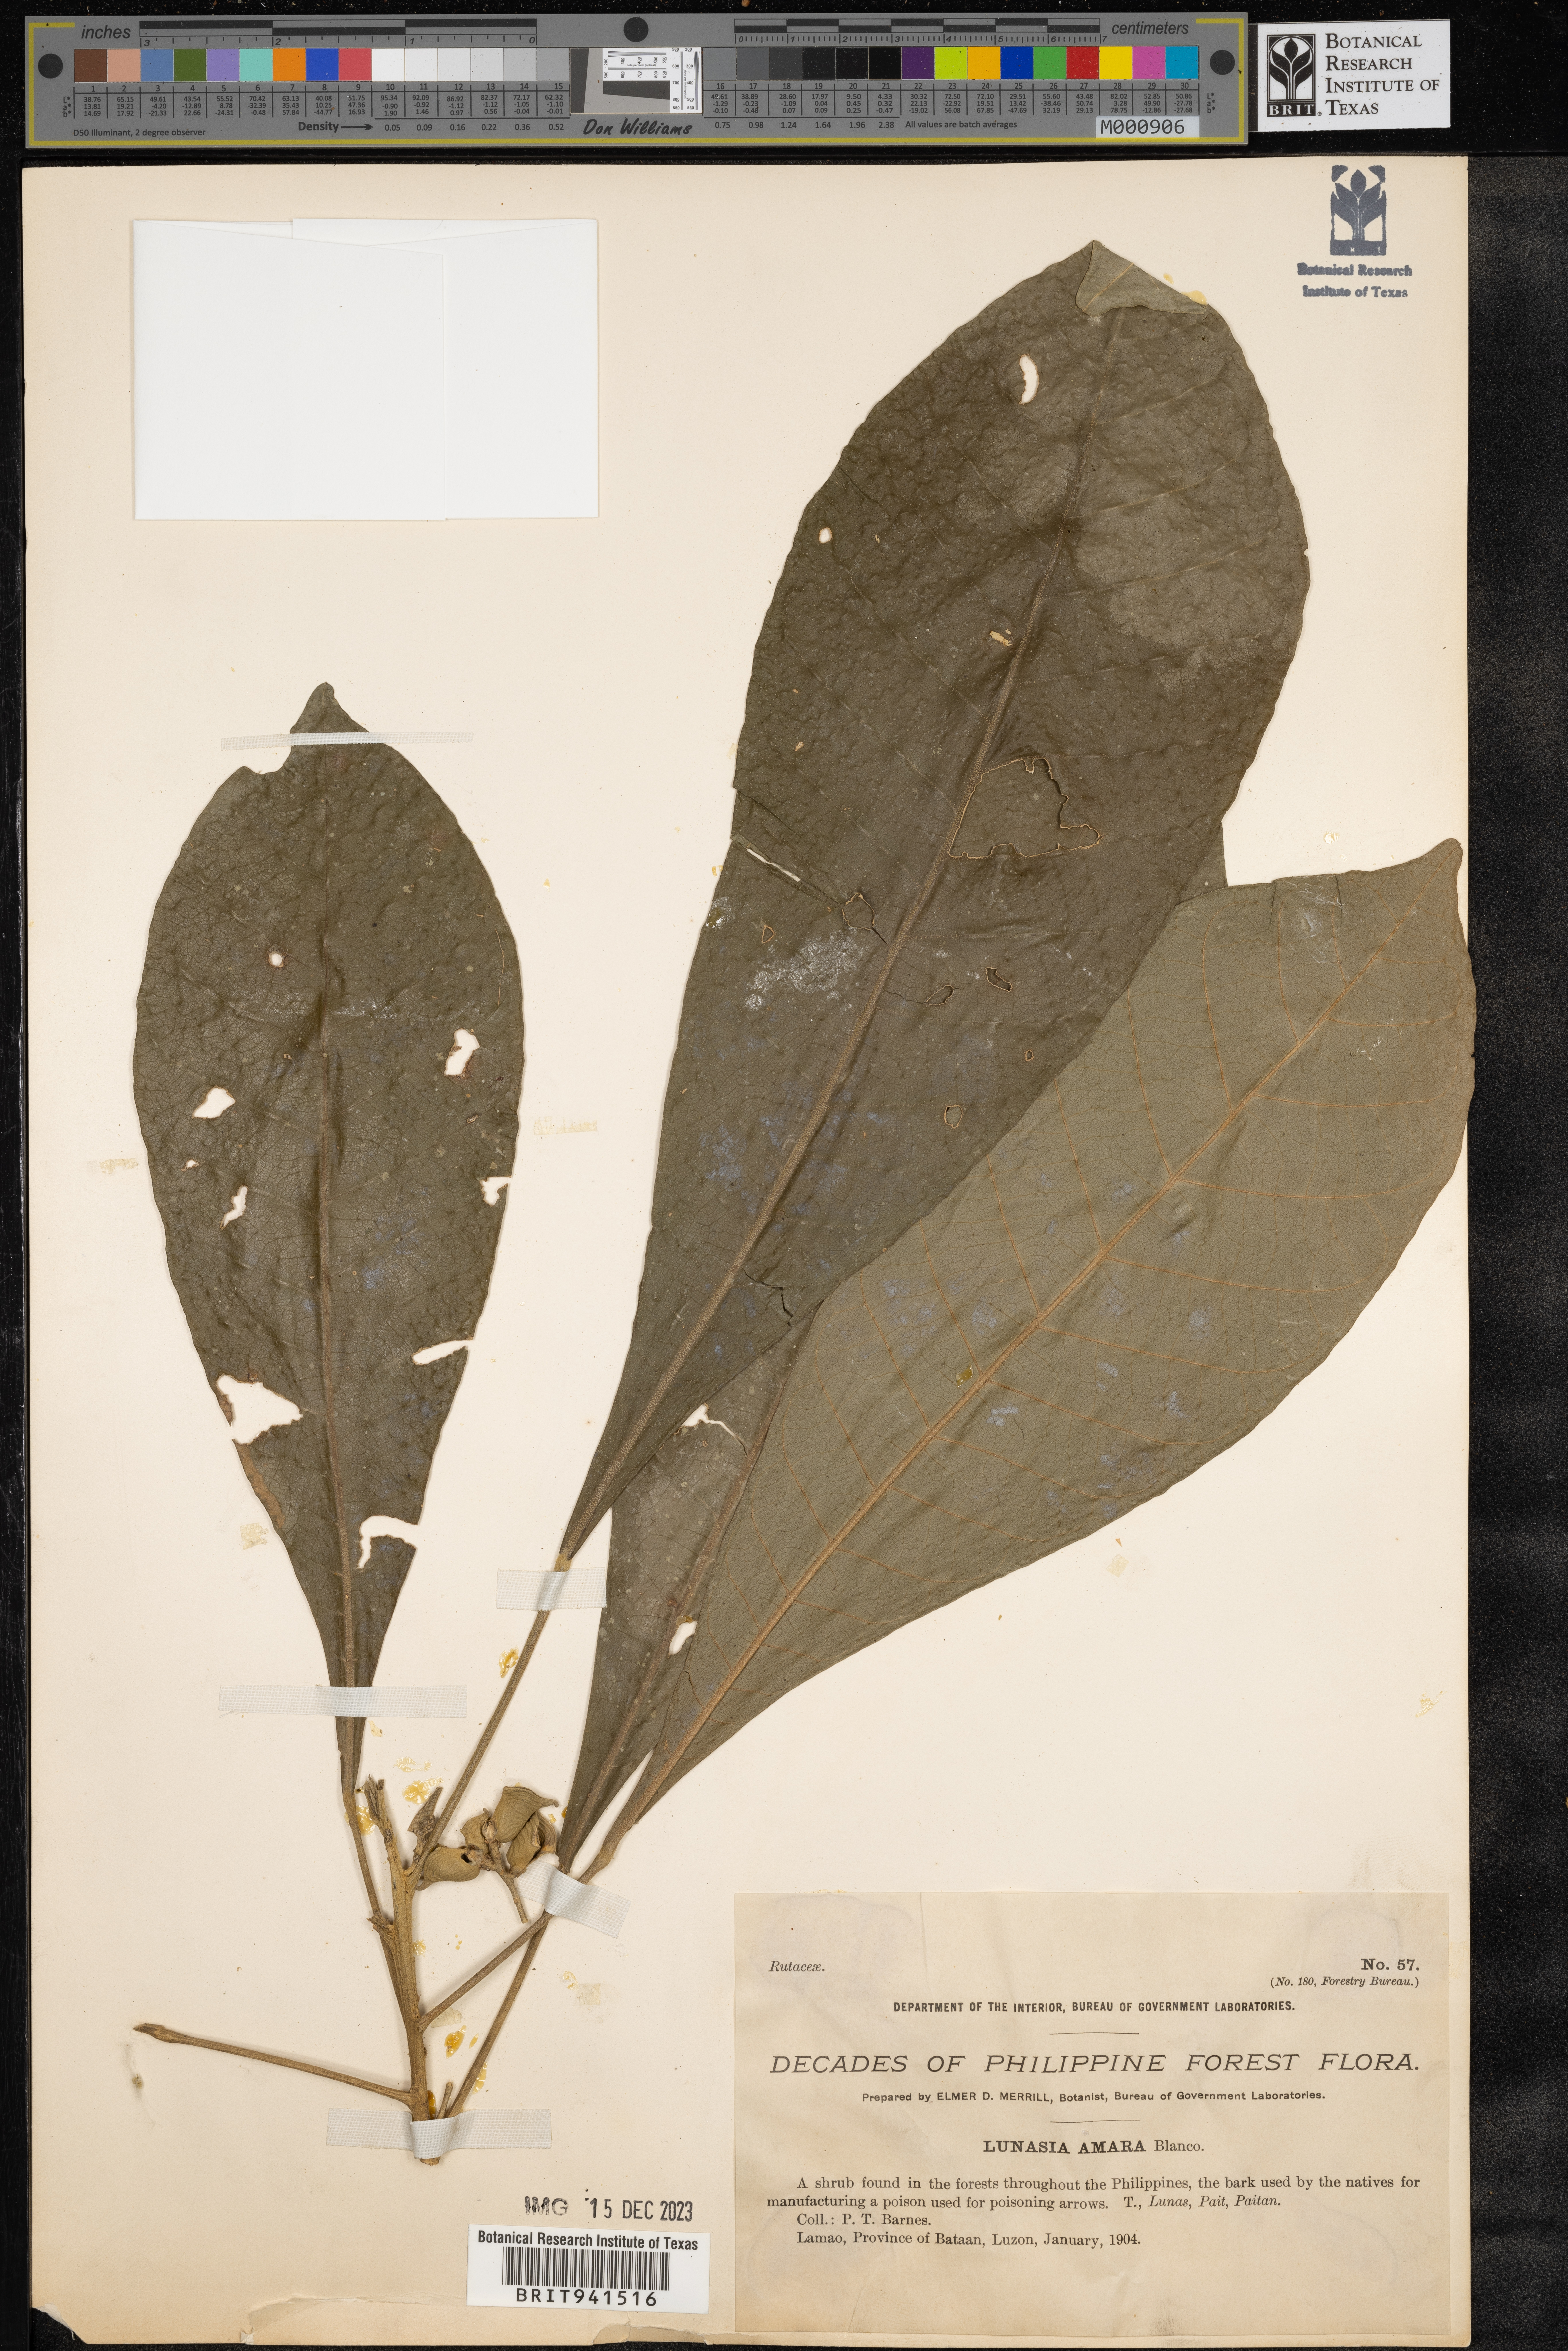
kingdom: Plantae
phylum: Tracheophyta
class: Magnoliopsida
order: Sapindales
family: Rutaceae
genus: Lunasia
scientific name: Lunasia amara
